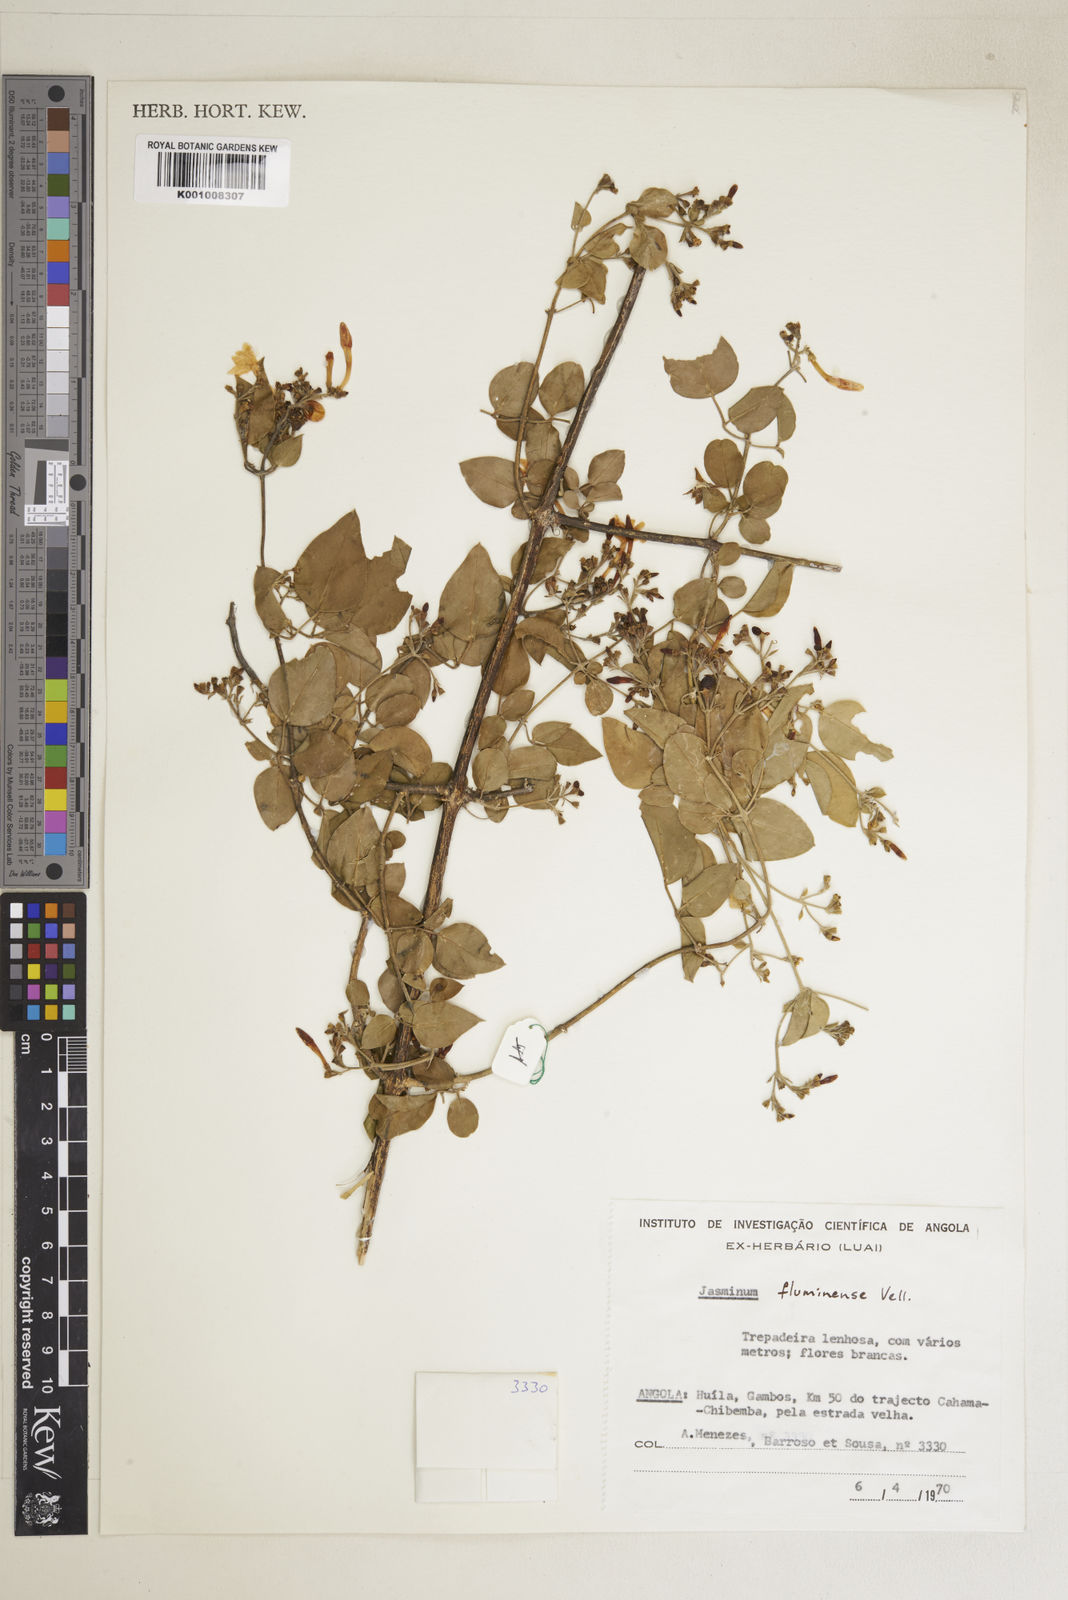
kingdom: Plantae
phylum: Tracheophyta
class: Magnoliopsida
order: Lamiales
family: Oleaceae
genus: Jasminum
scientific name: Jasminum fluminense
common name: Brazilian jasmine
